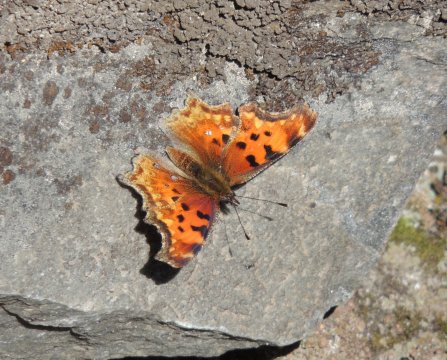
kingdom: Animalia
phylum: Arthropoda
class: Insecta
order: Lepidoptera
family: Nymphalidae
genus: Polygonia
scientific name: Polygonia gracilis
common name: Hoary Comma
